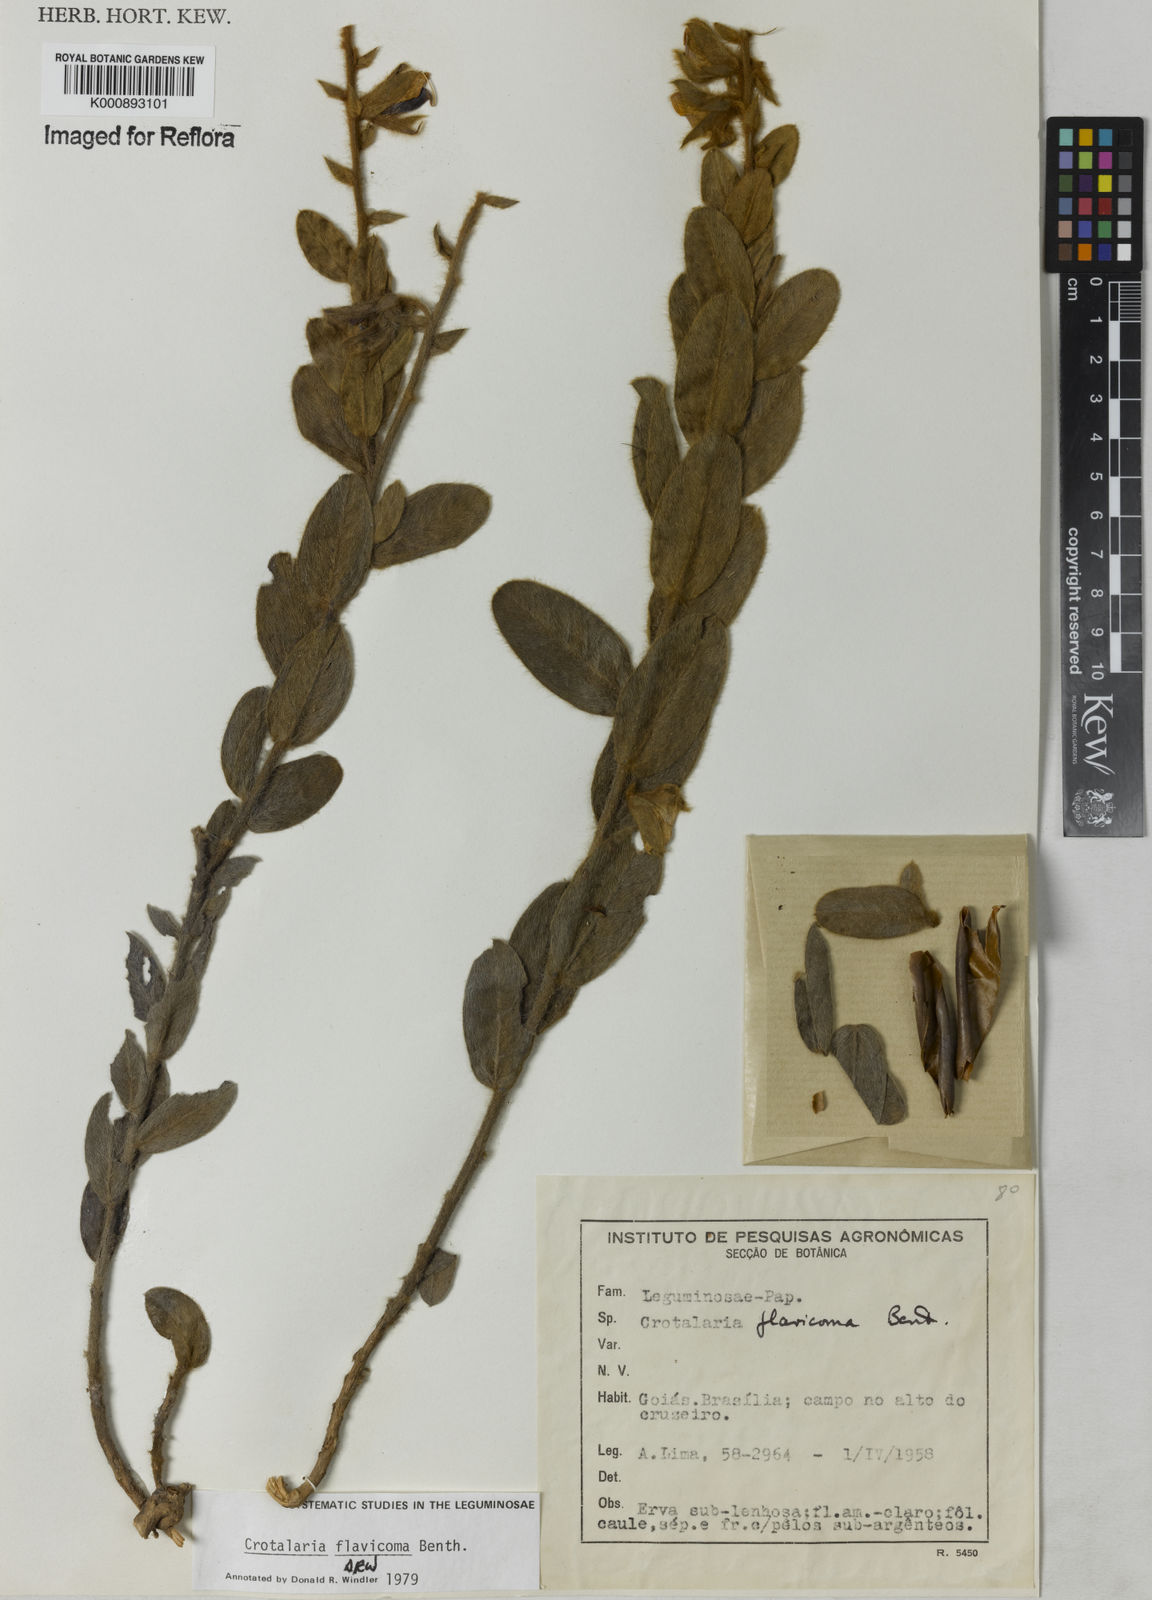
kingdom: Plantae
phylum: Tracheophyta
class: Magnoliopsida
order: Fabales
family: Fabaceae
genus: Crotalaria
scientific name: Crotalaria flavicoma
